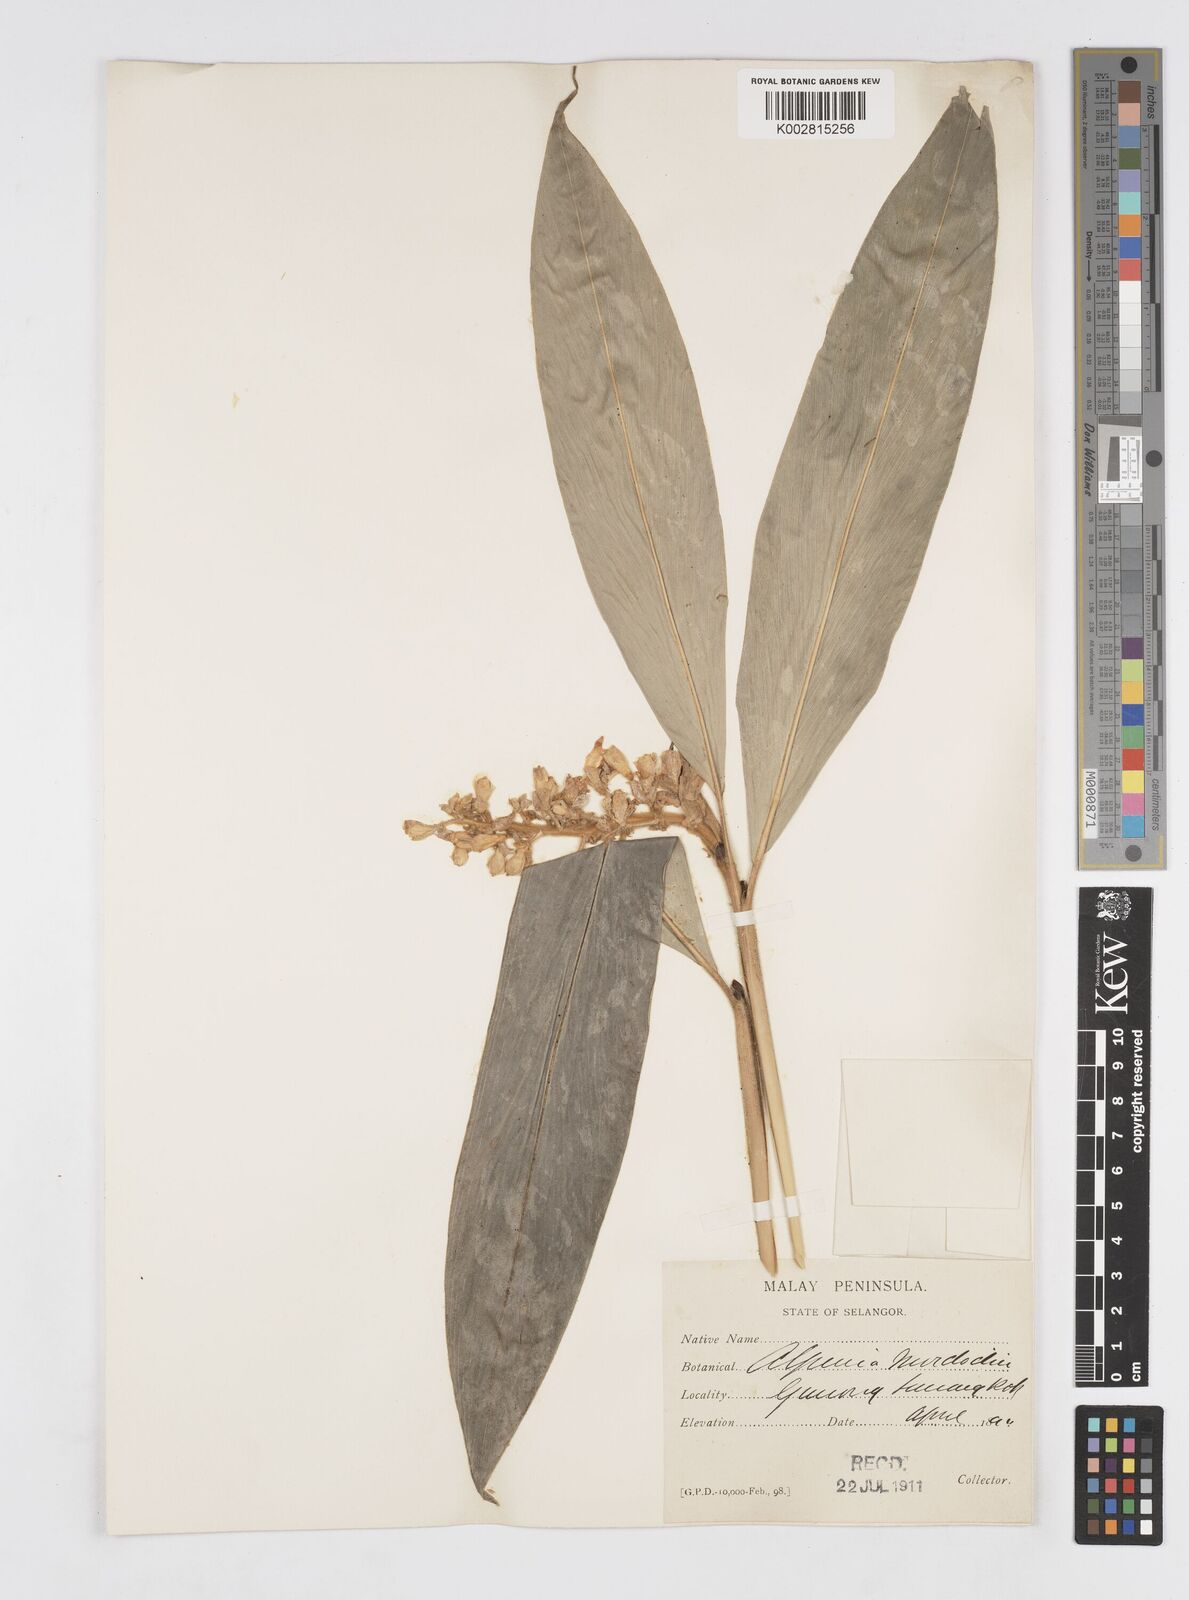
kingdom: Plantae
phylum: Tracheophyta
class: Liliopsida
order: Zingiberales
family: Zingiberaceae
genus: Alpinia
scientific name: Alpinia murdochii
